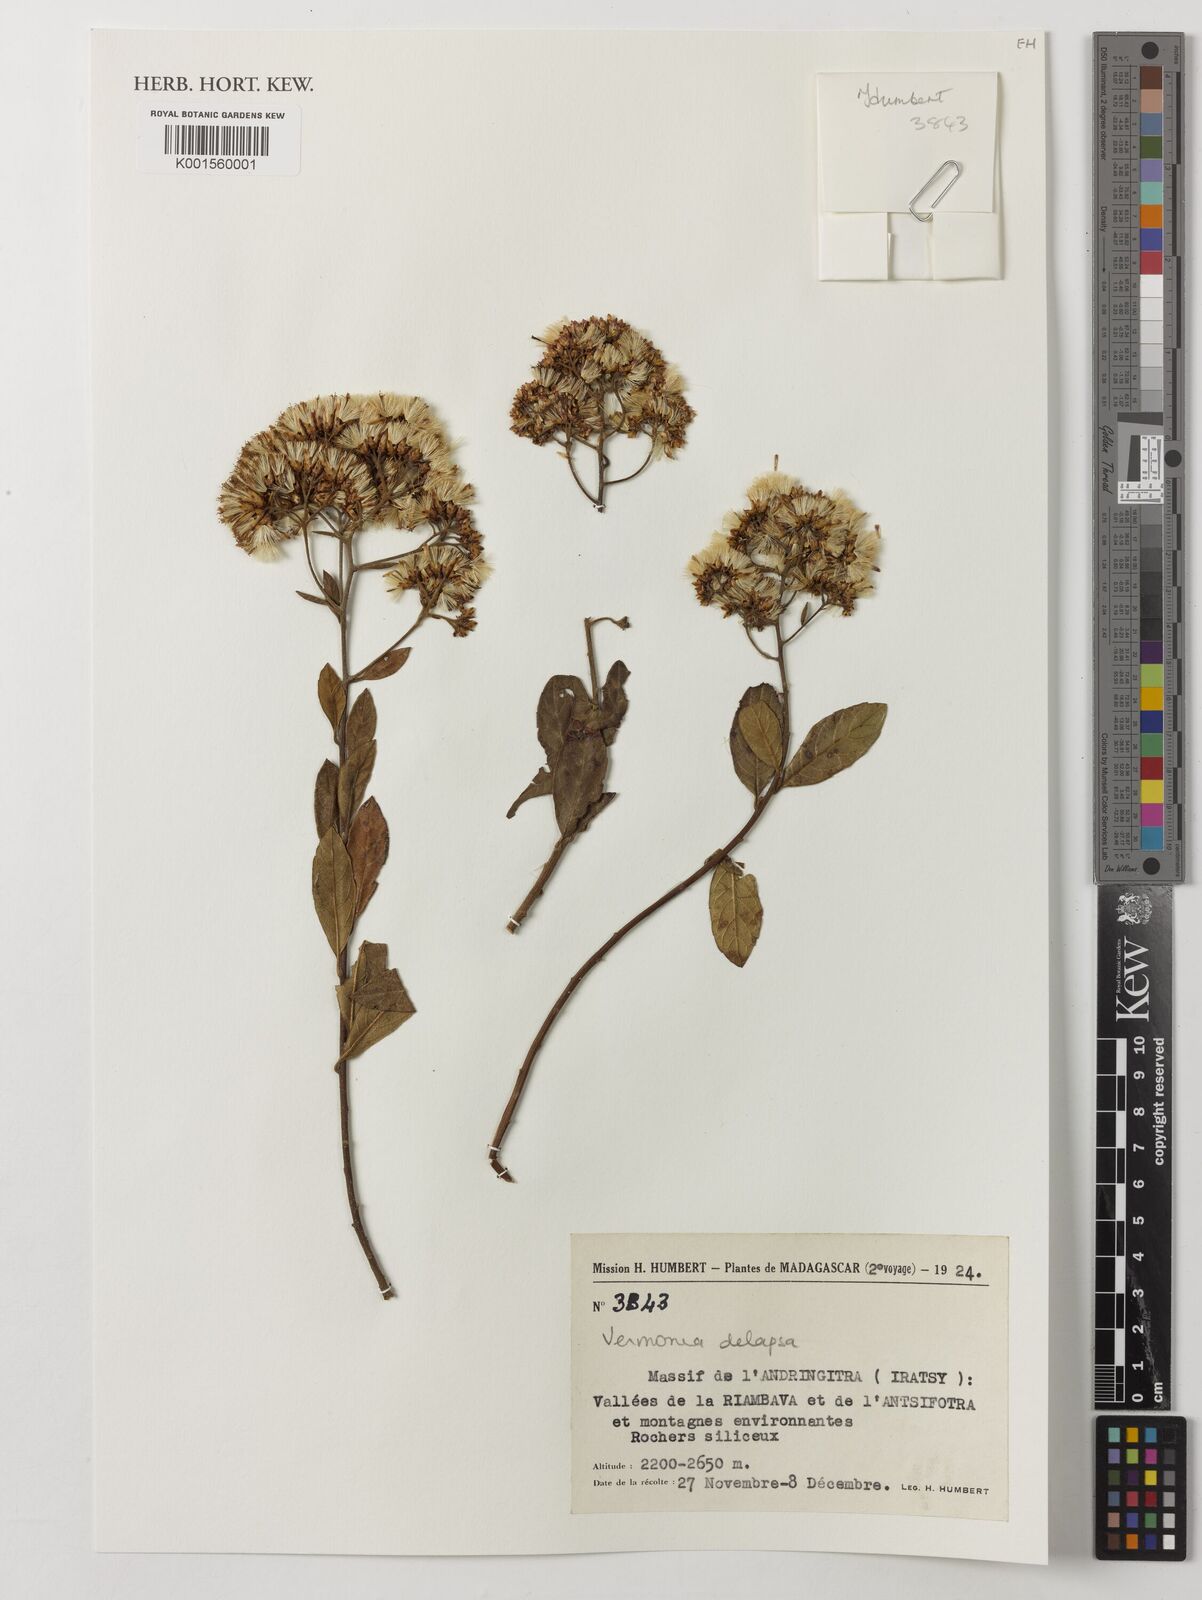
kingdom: Plantae
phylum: Tracheophyta
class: Magnoliopsida
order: Asterales
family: Asteraceae
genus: Vernonia
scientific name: Vernonia delapsa
